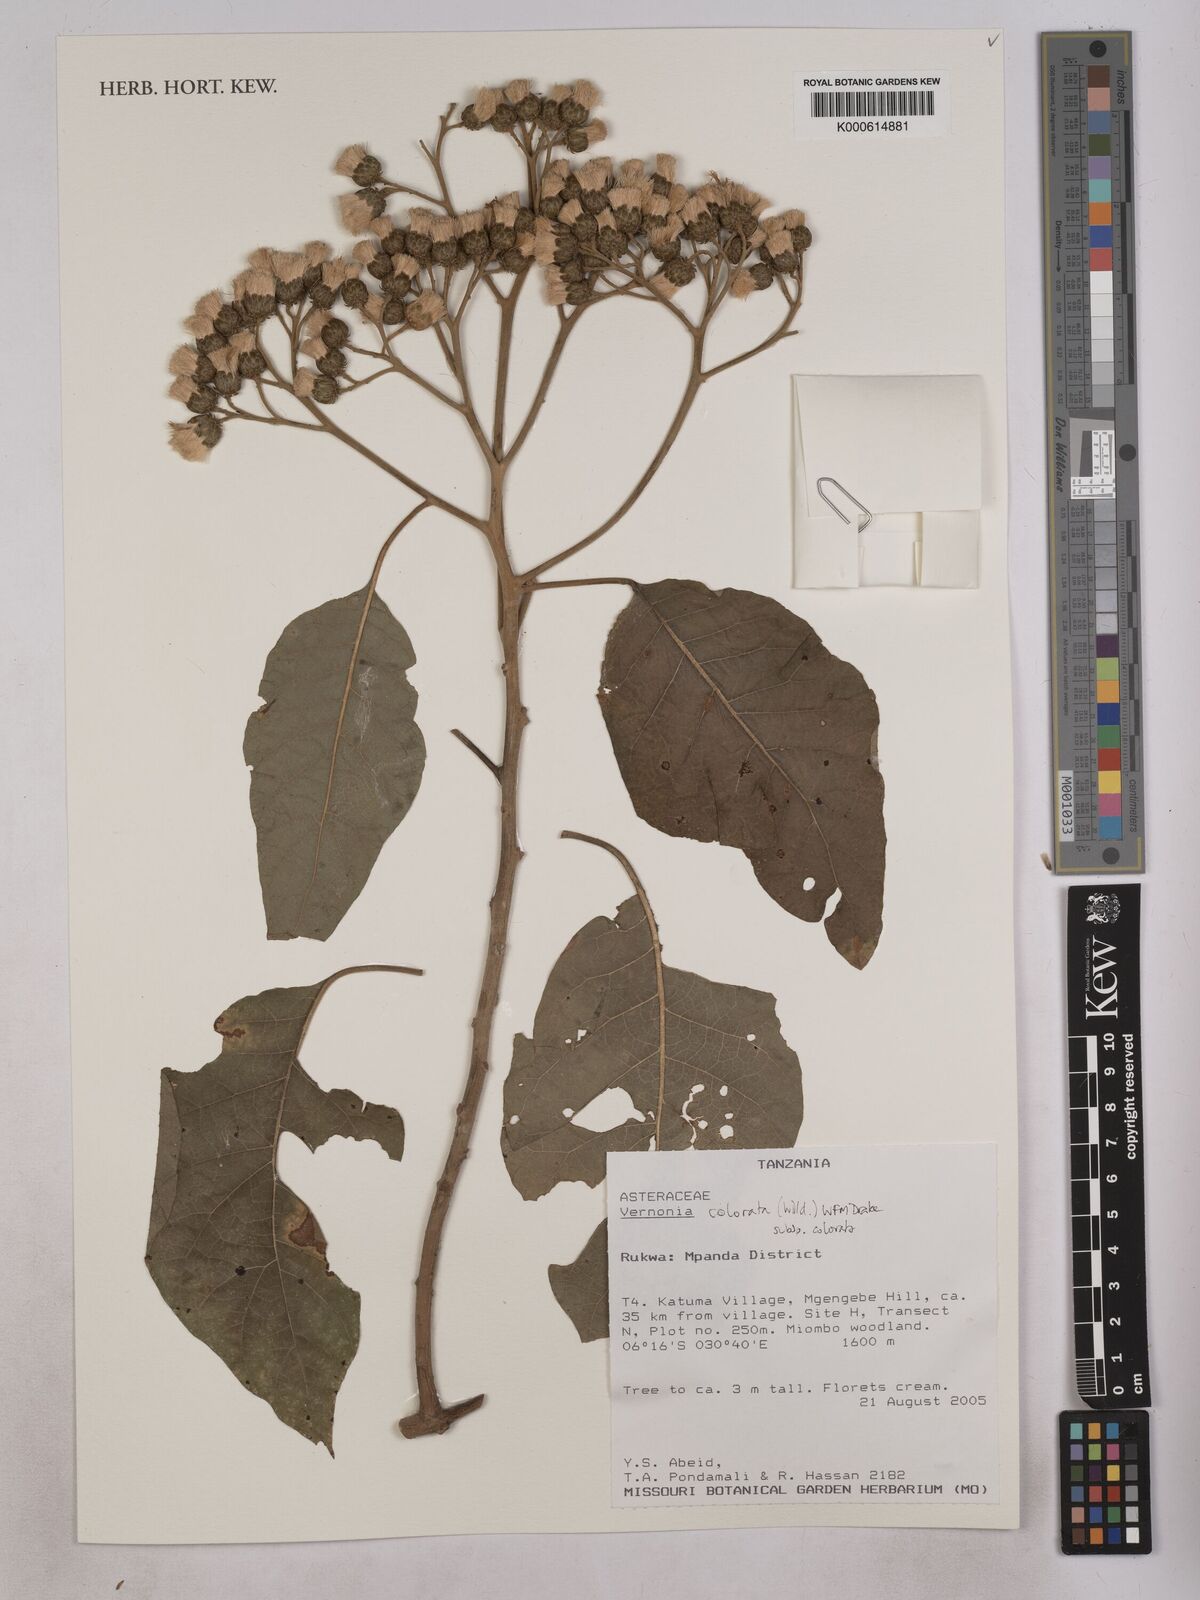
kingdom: Plantae
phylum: Tracheophyta
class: Magnoliopsida
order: Asterales
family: Asteraceae
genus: Vernonia
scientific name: Vernonia colorata
